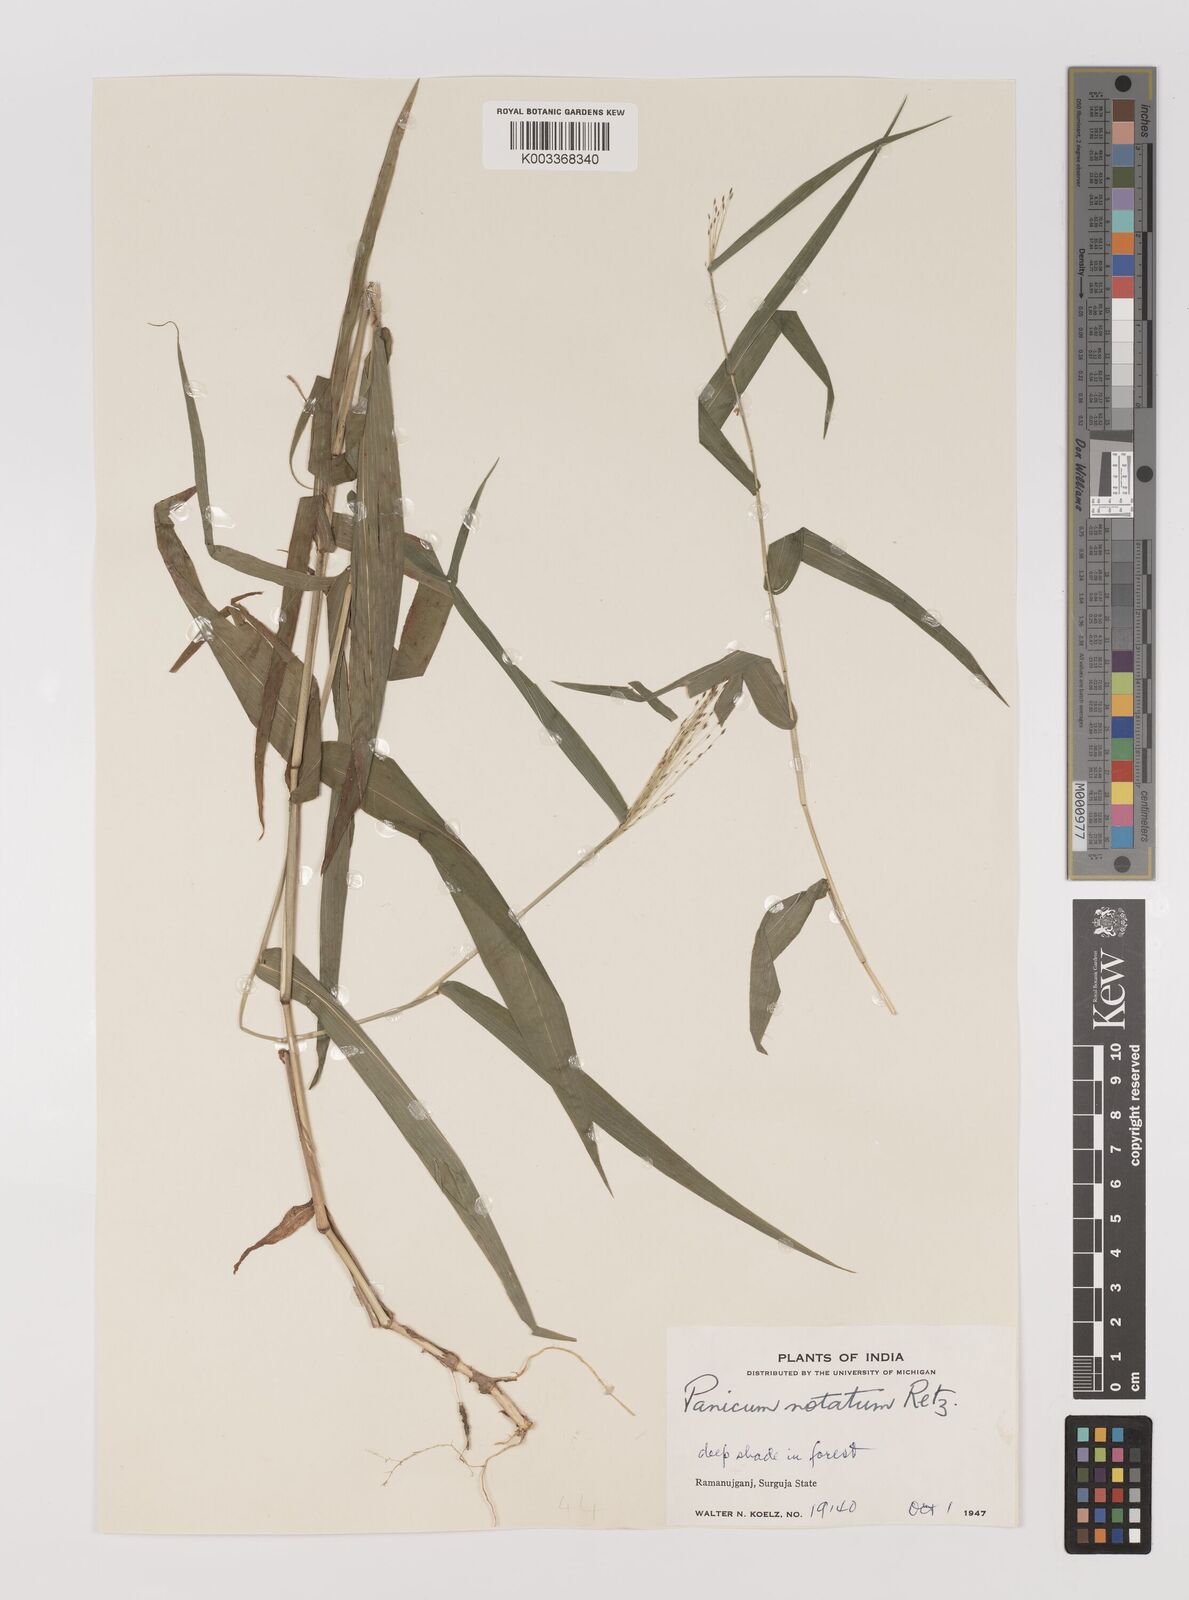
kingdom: Plantae
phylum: Tracheophyta
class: Liliopsida
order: Poales
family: Poaceae
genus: Panicum
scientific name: Panicum notatum
